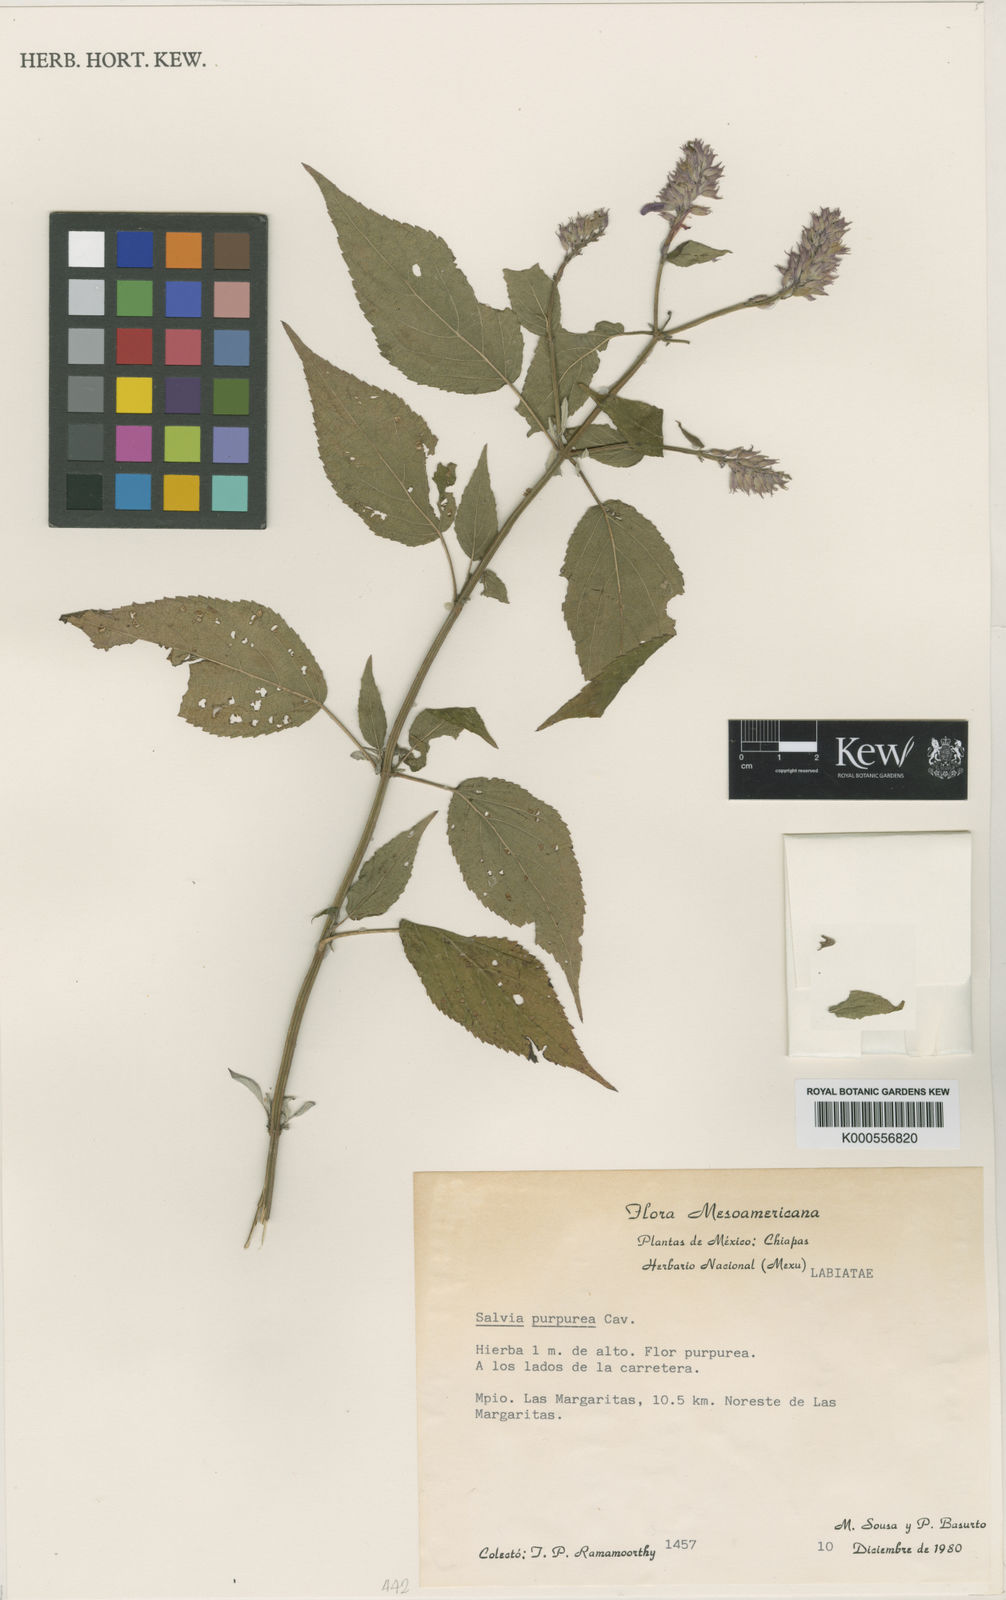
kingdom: Plantae
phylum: Tracheophyta
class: Magnoliopsida
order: Lamiales
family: Lamiaceae
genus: Salvia
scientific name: Salvia purpurea
